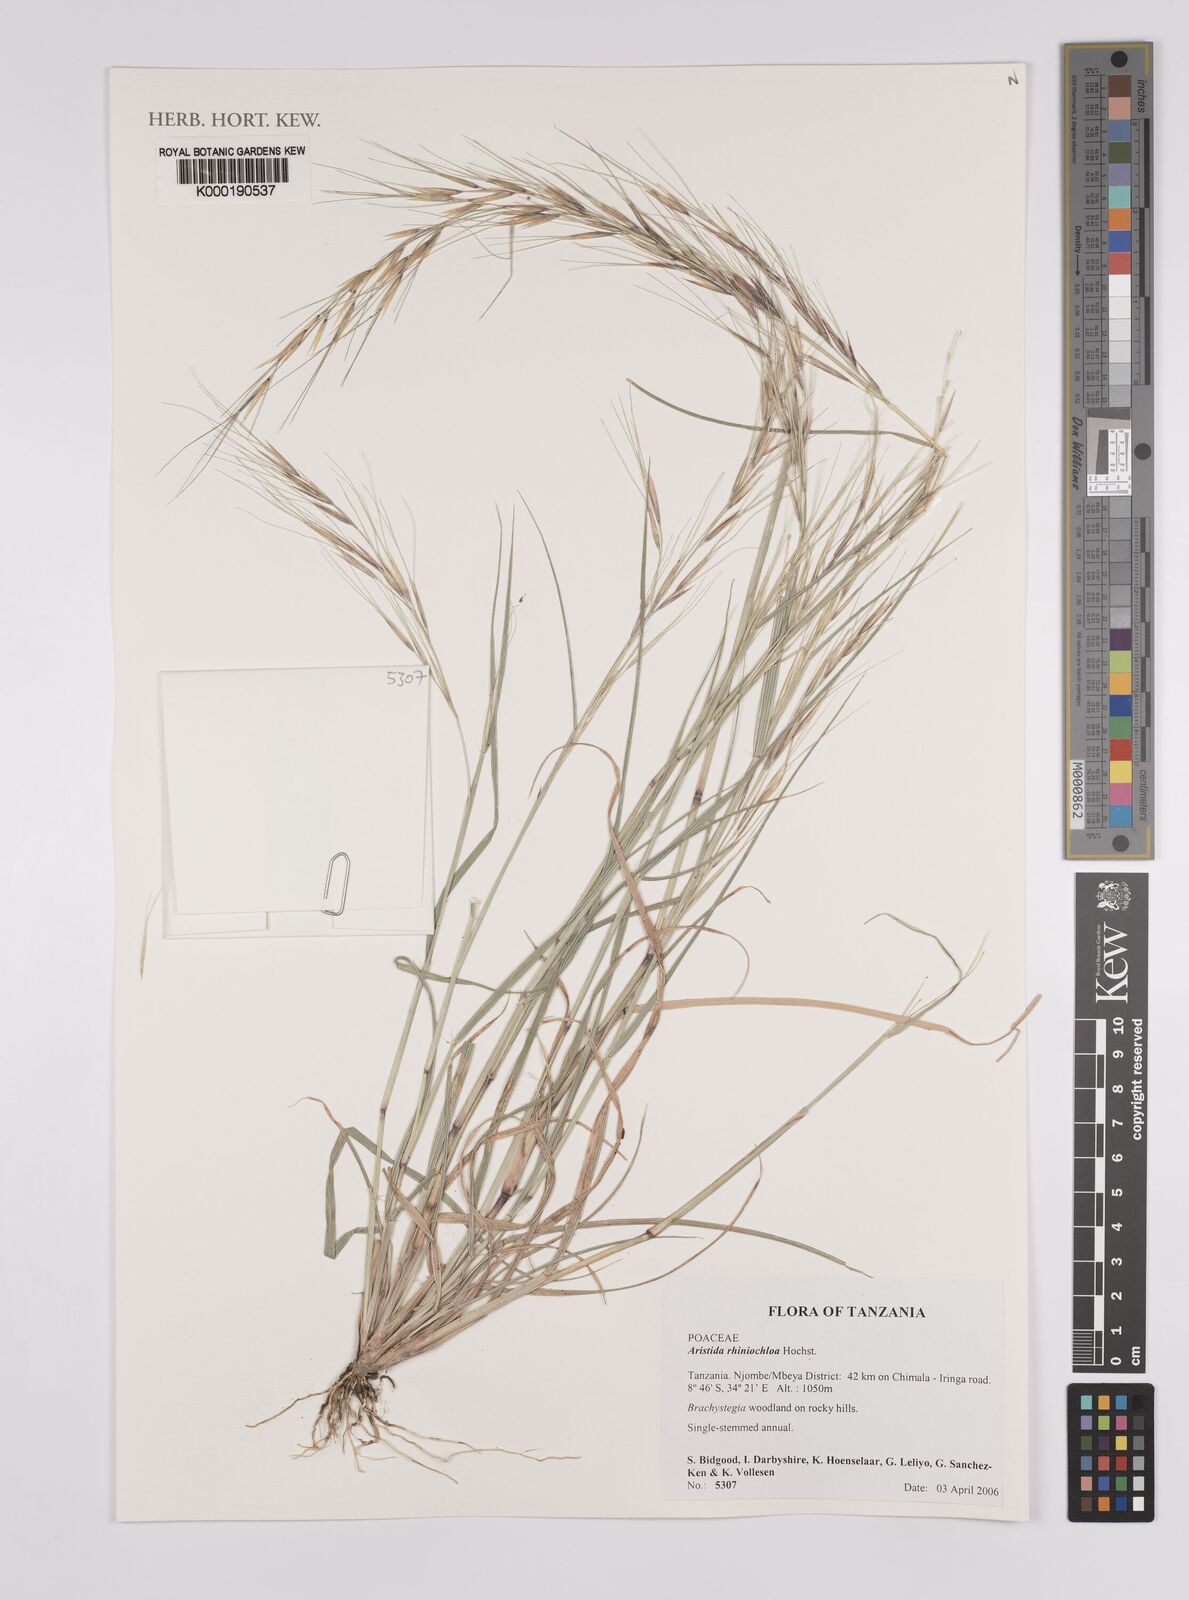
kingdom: Plantae
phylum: Tracheophyta
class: Liliopsida
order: Poales
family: Poaceae
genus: Aristida
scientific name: Aristida rhiniochloa
